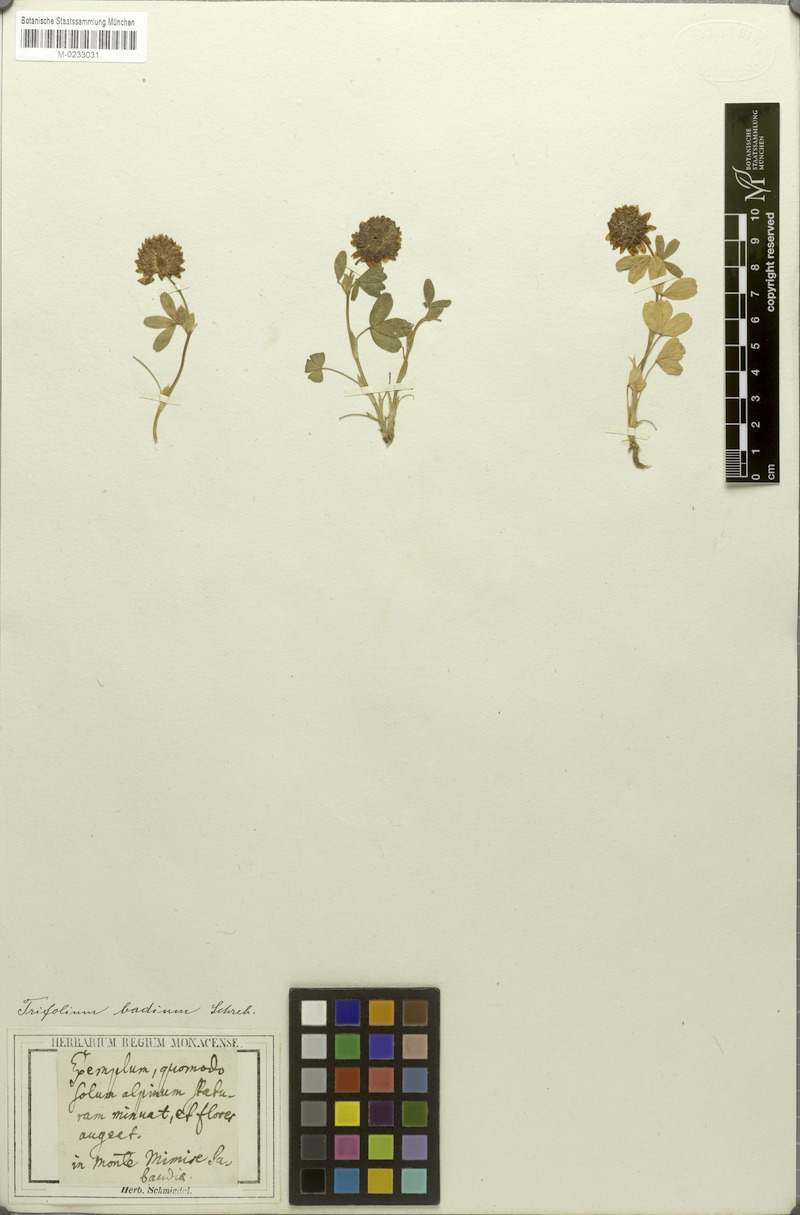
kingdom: Plantae
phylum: Tracheophyta
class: Magnoliopsida
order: Fabales
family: Fabaceae
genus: Trifolium
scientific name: Trifolium badium
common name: Brown clover
